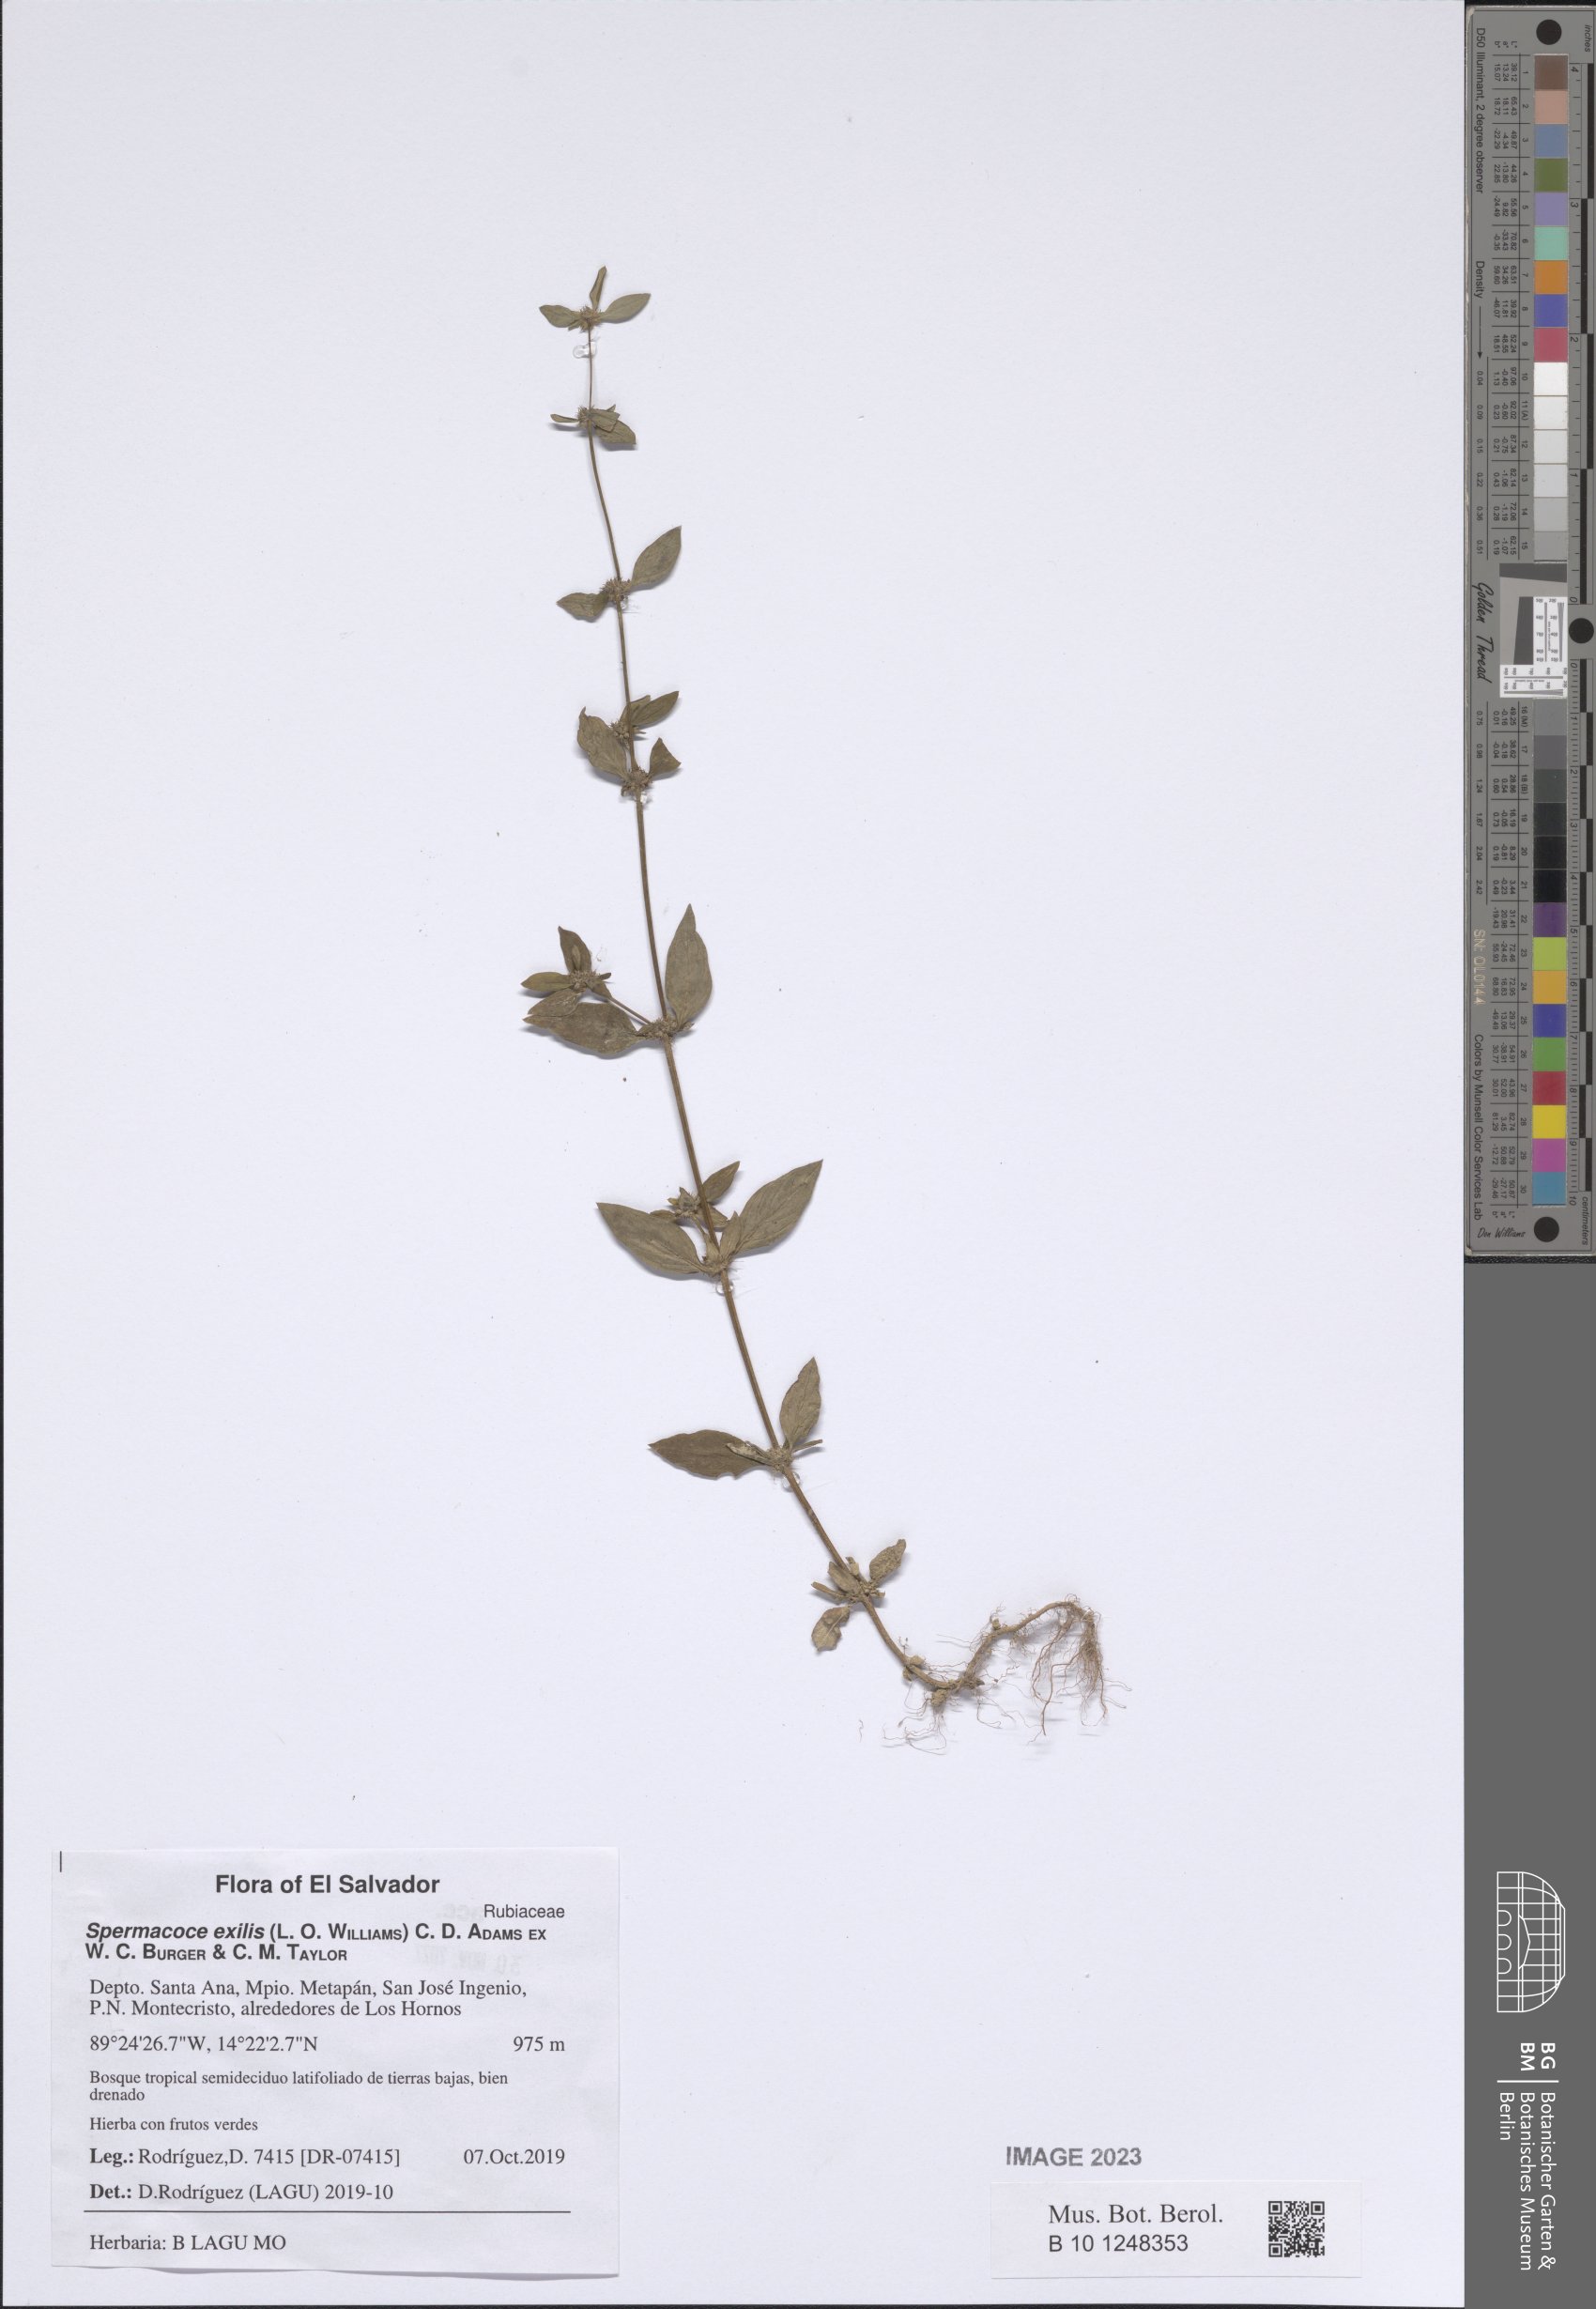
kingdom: Plantae
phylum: Tracheophyta
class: Magnoliopsida
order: Gentianales
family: Rubiaceae
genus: Spermacoce
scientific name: Spermacoce exilis
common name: Pacific false buttonweed
